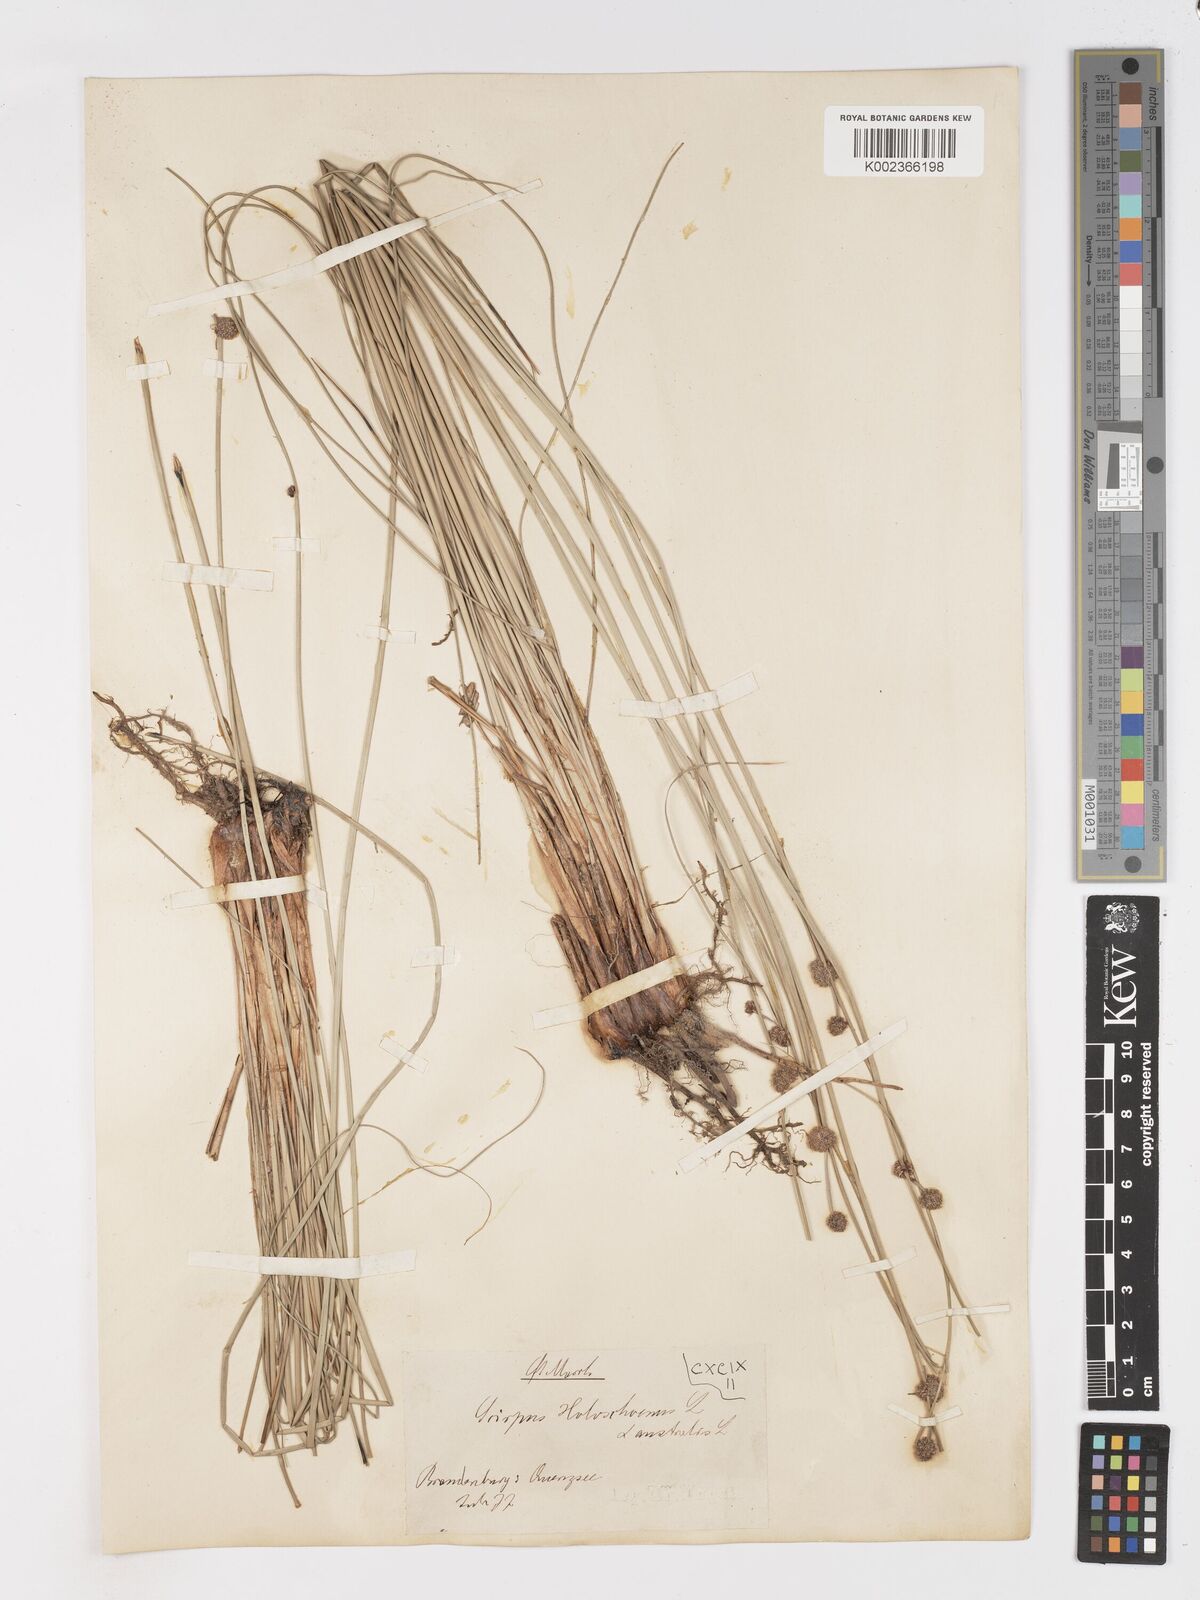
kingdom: Plantae
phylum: Tracheophyta
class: Liliopsida
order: Poales
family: Cyperaceae
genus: Scirpoides
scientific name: Scirpoides holoschoenus
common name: Round-headed club-rush
